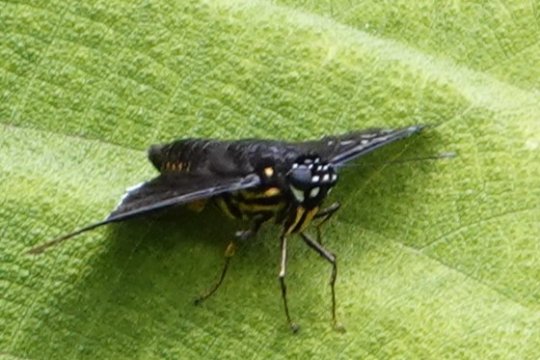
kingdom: Animalia
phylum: Arthropoda
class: Insecta
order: Lepidoptera
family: Hesperiidae
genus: Melanopyge
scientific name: Melanopyge
